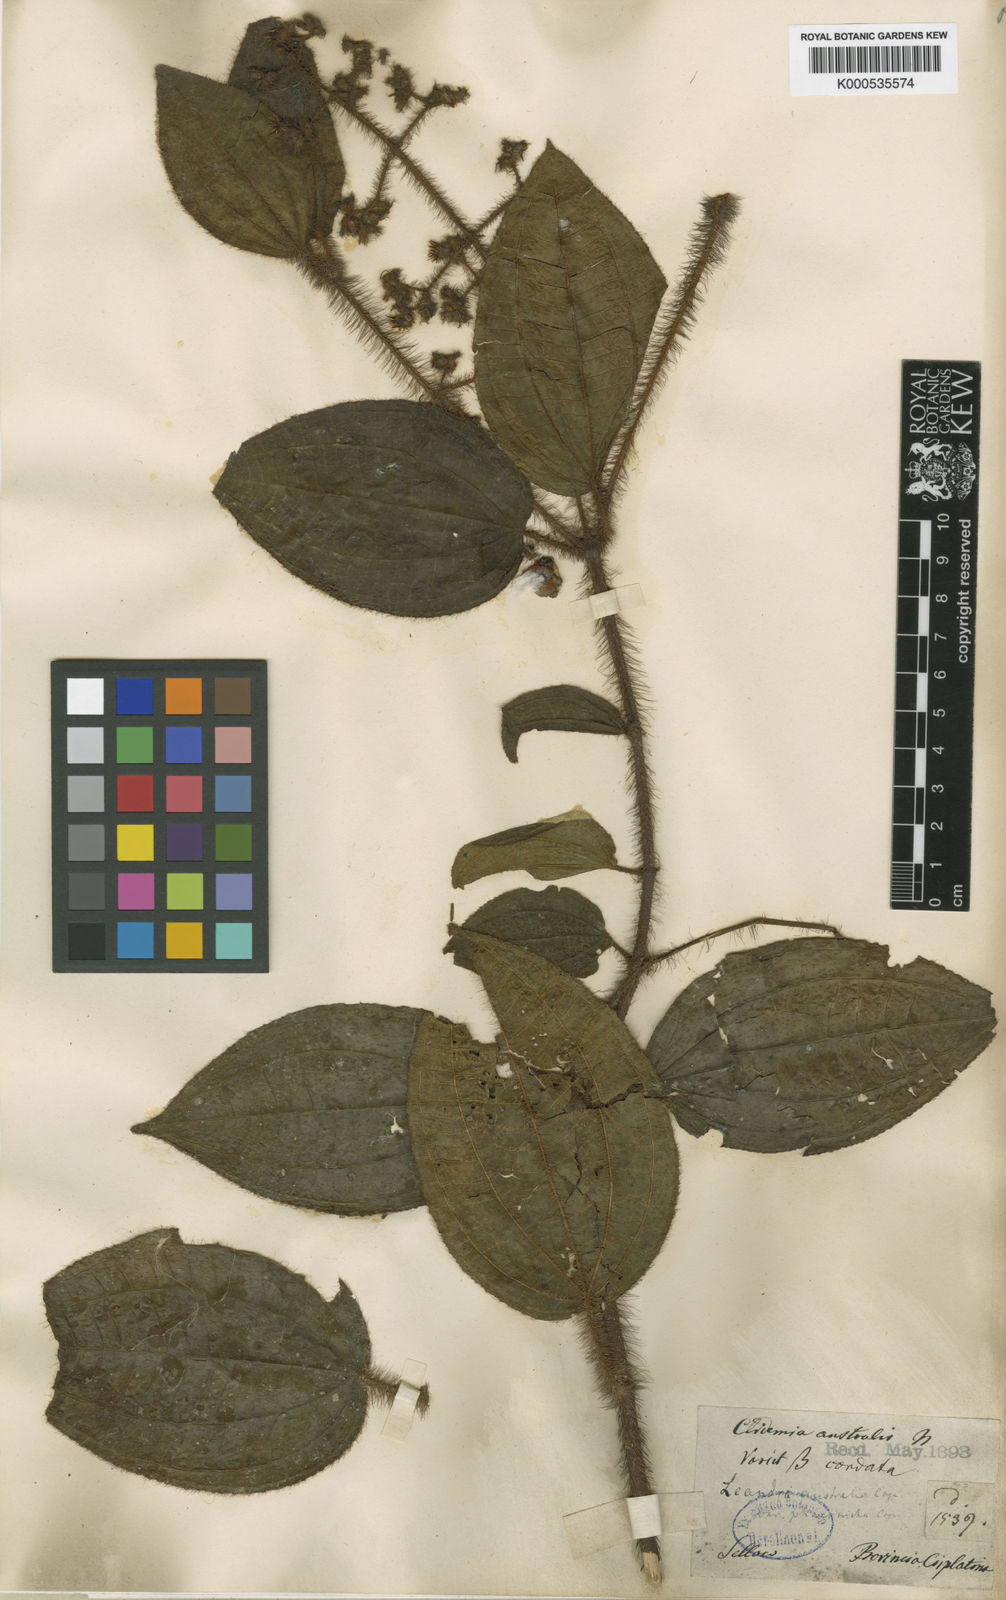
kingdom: Plantae
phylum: Tracheophyta
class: Magnoliopsida
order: Myrtales
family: Melastomataceae
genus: Miconia
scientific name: Miconia australis
